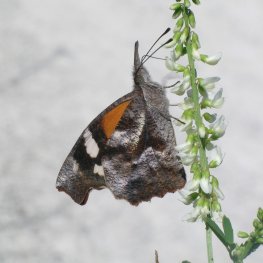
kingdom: Animalia
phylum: Arthropoda
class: Insecta
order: Lepidoptera
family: Nymphalidae
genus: Libytheana
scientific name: Libytheana carinenta
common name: American Snout
